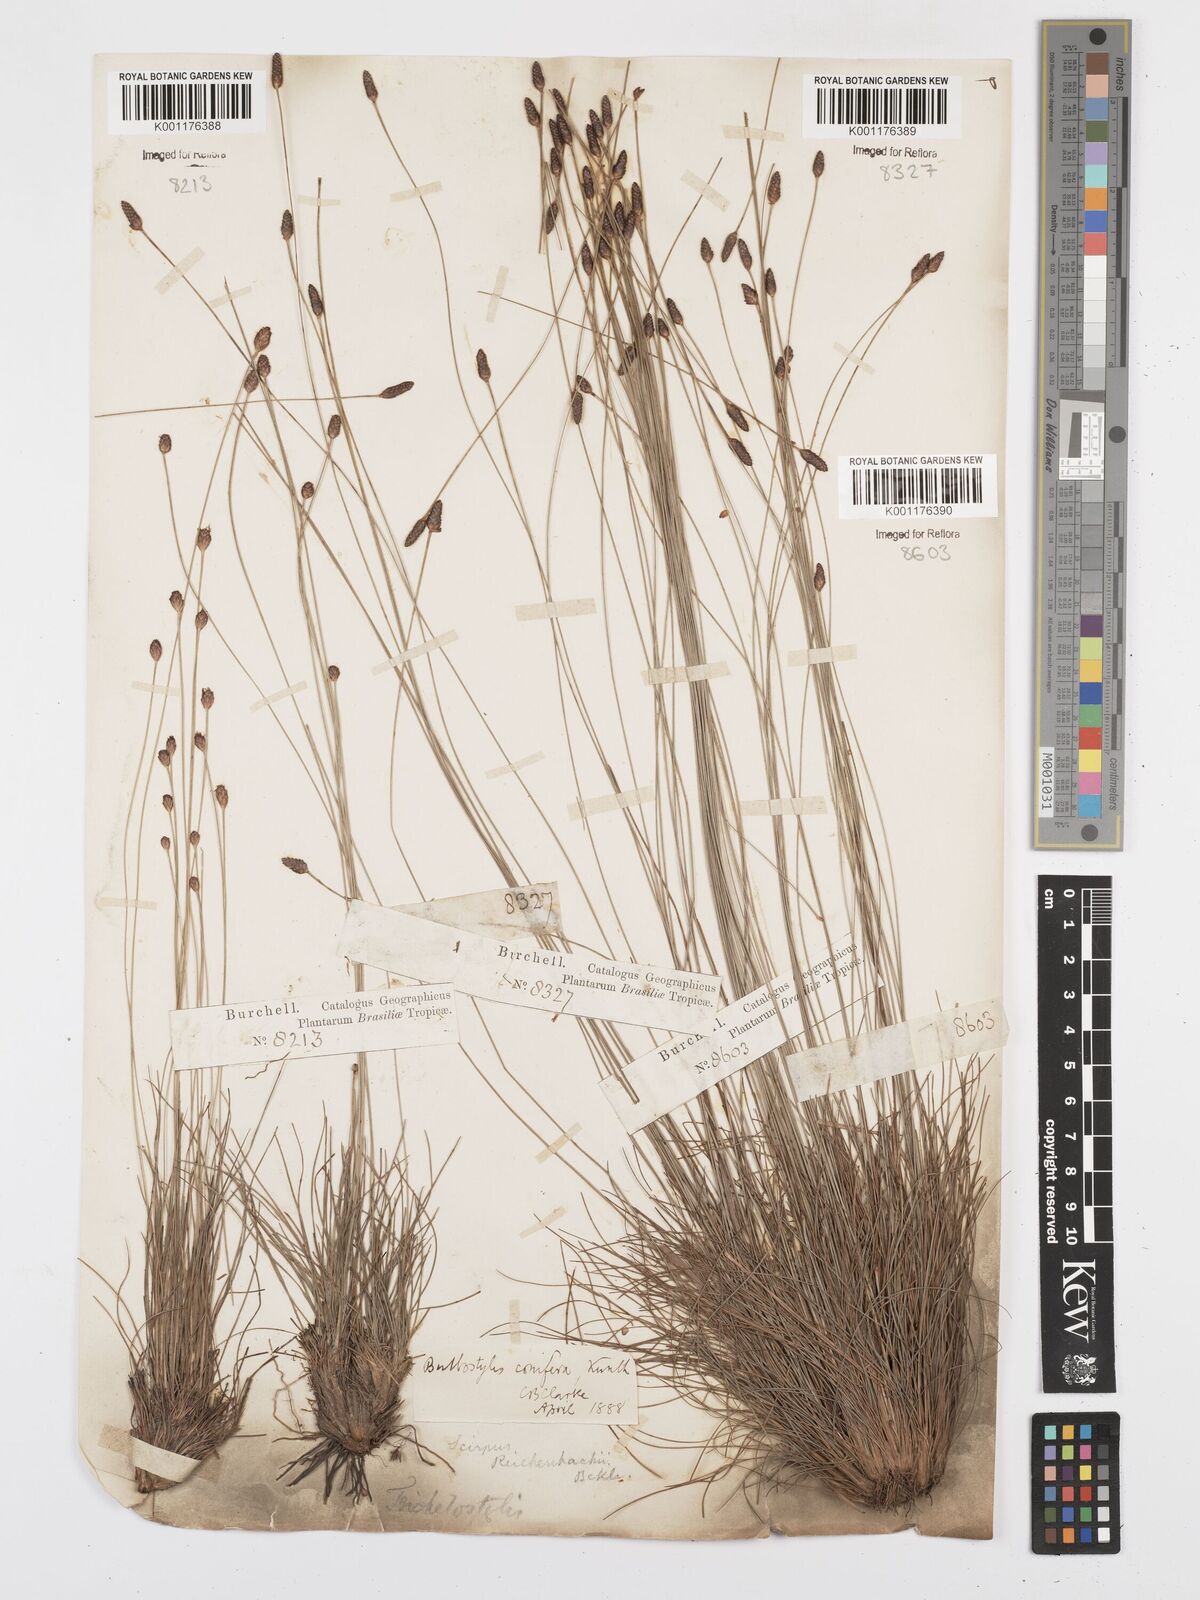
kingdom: Plantae
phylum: Tracheophyta
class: Liliopsida
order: Poales
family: Cyperaceae
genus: Bulbostylis
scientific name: Bulbostylis conifera
